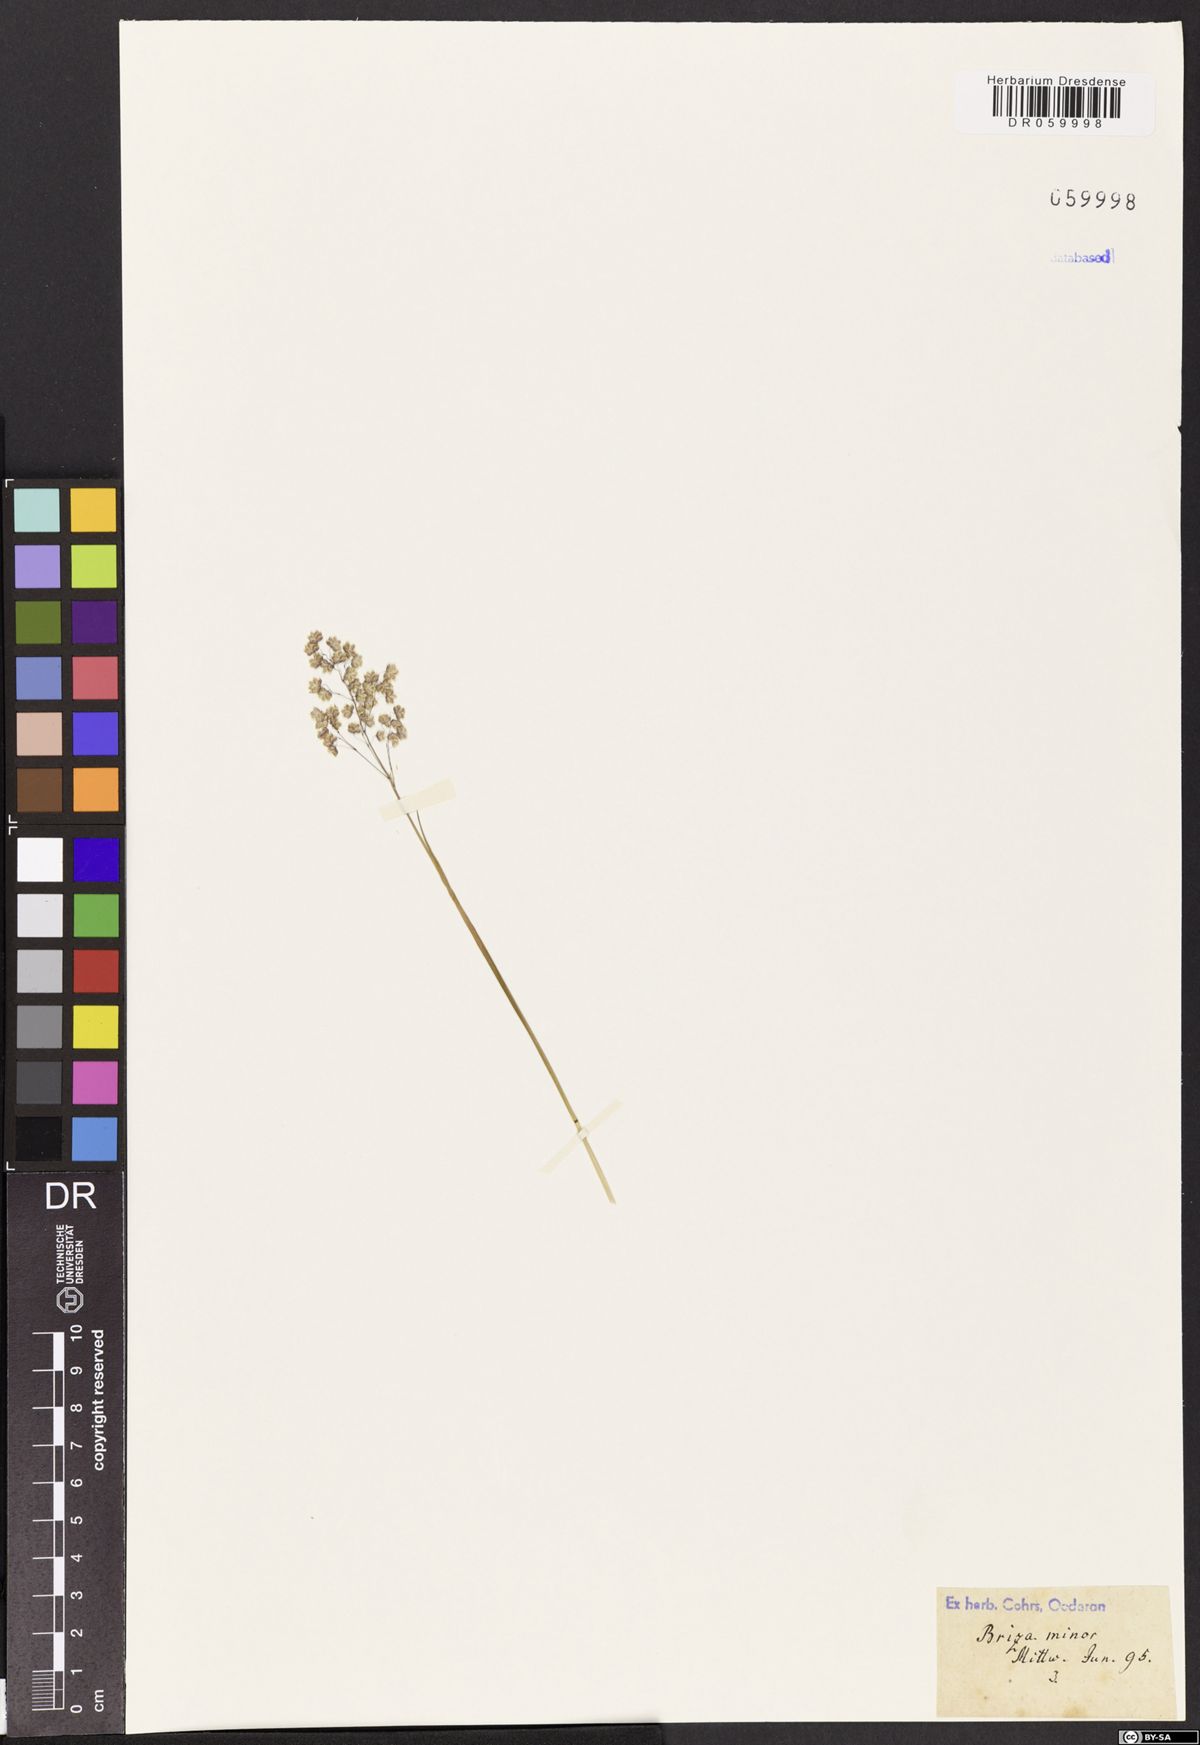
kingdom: Plantae
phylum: Tracheophyta
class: Liliopsida
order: Poales
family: Poaceae
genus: Briza
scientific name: Briza minor
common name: Lesser quaking-grass
